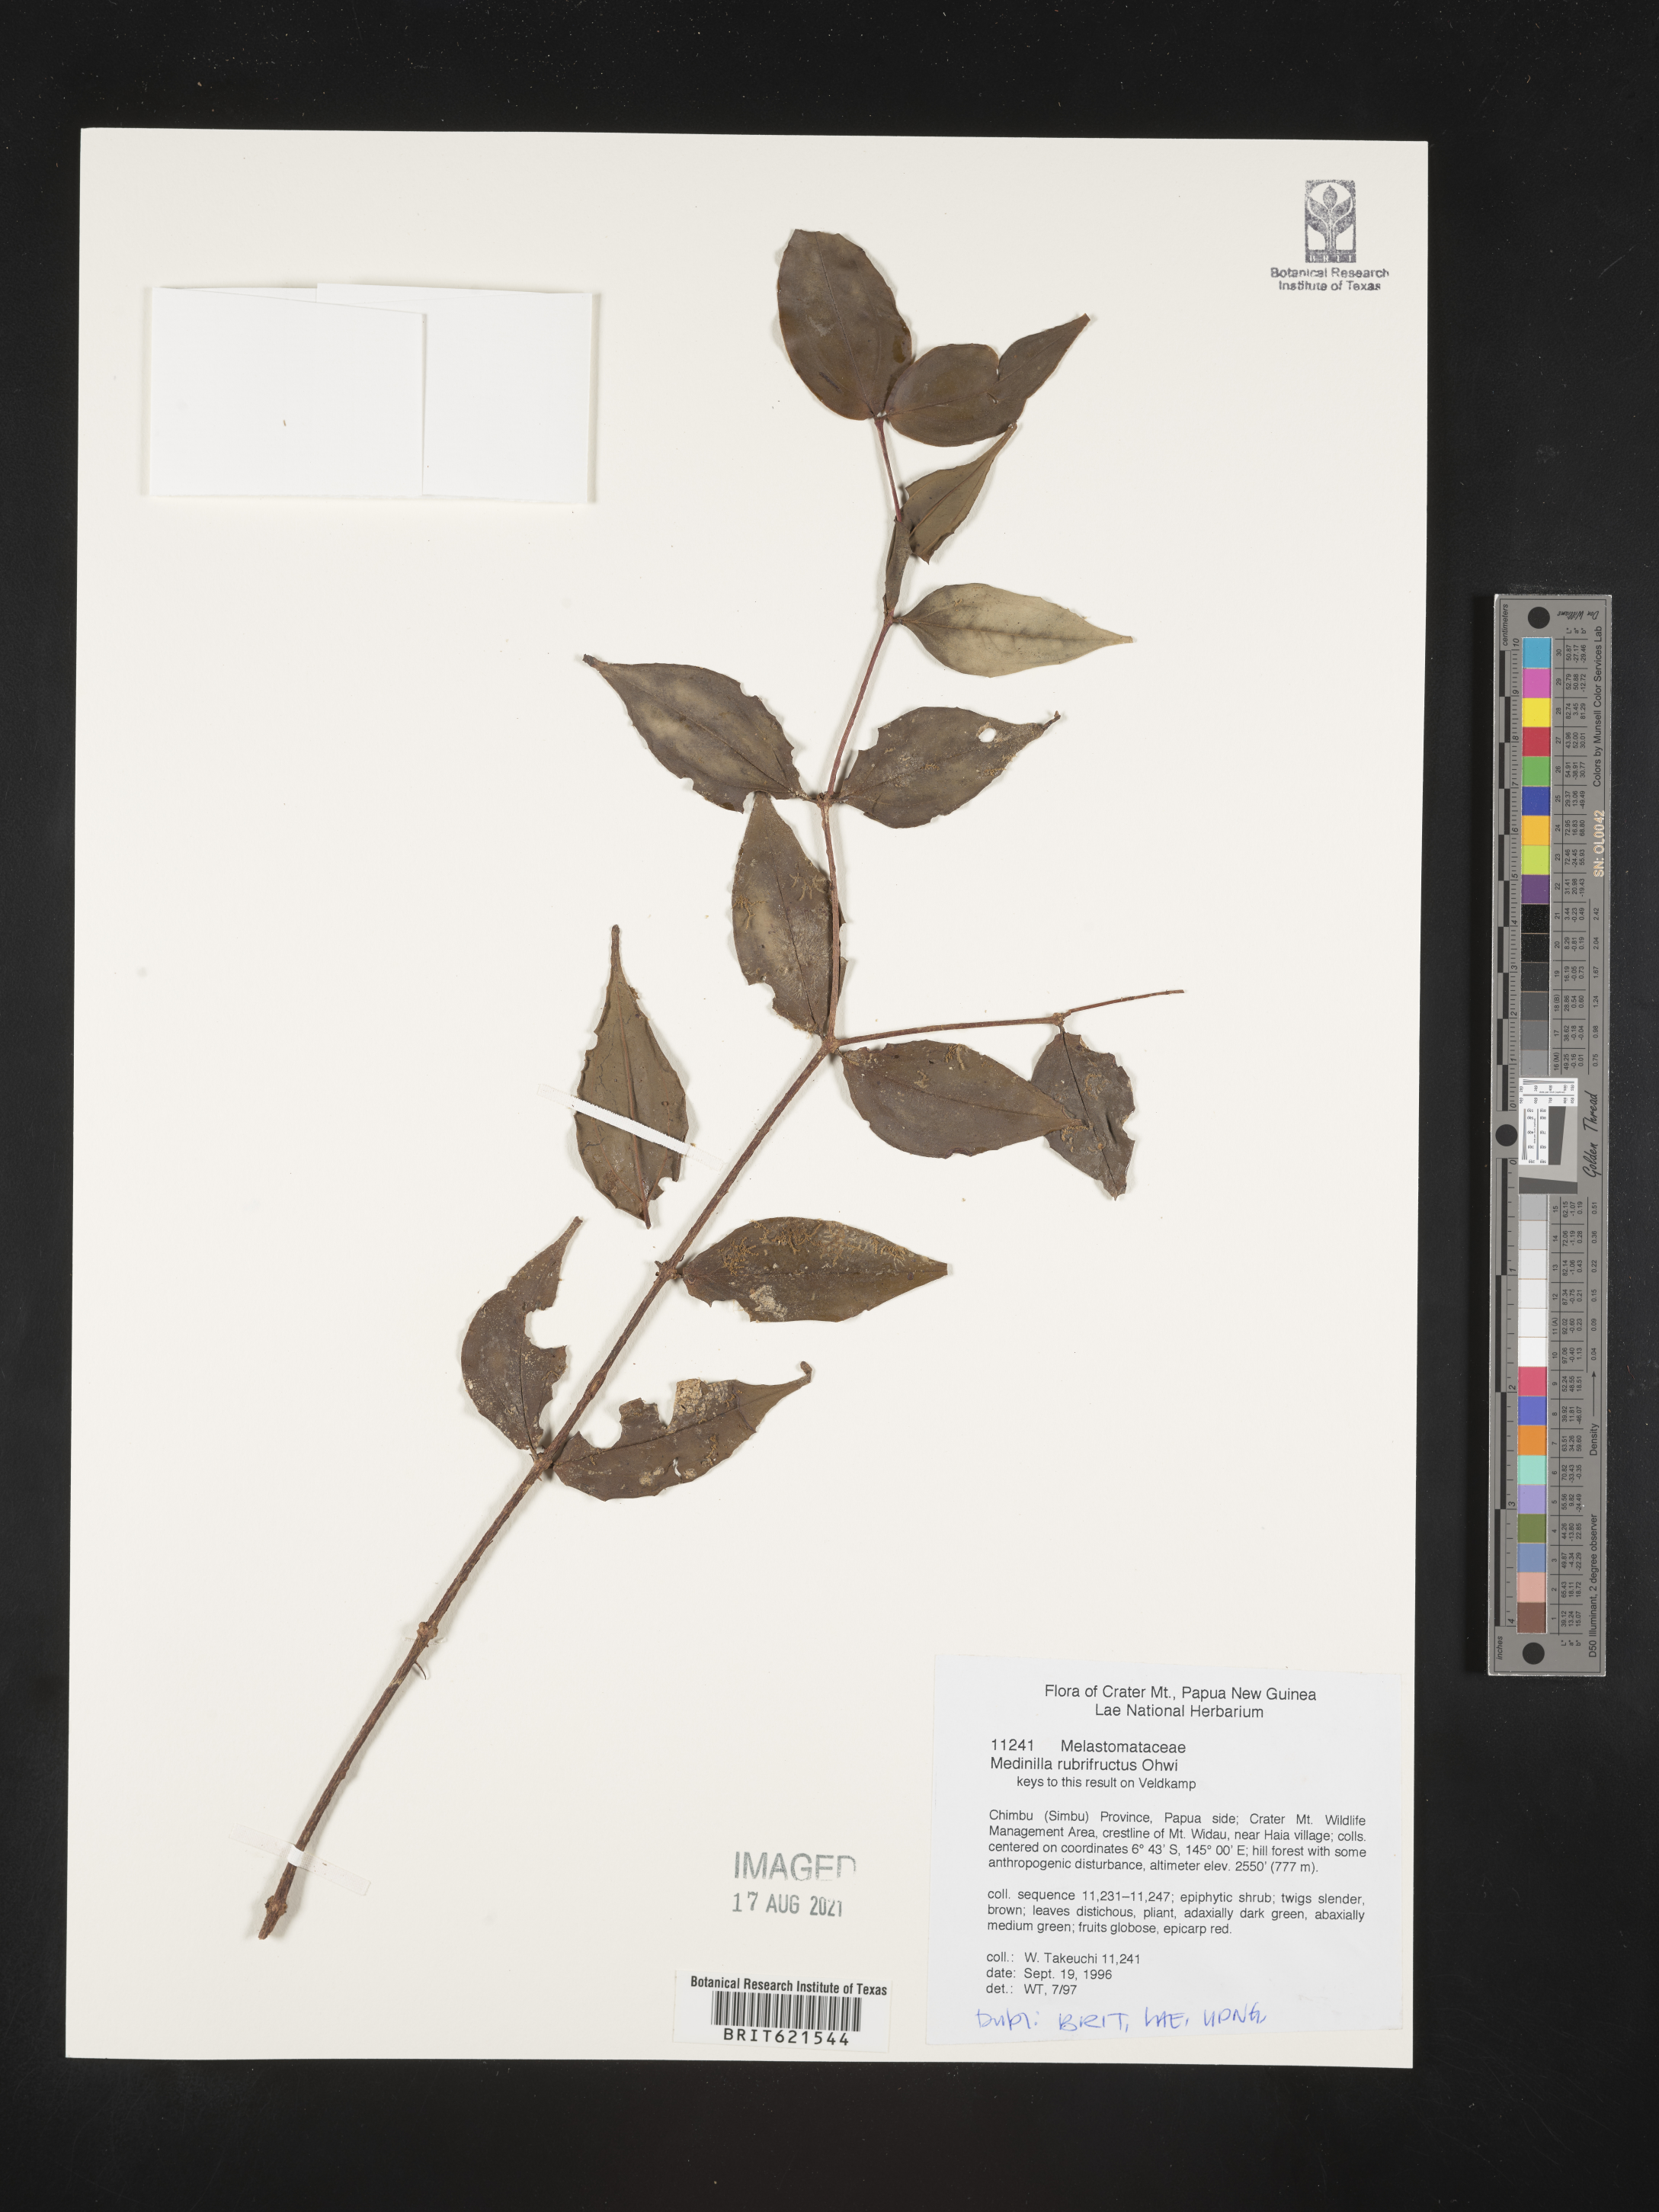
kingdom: Plantae
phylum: Tracheophyta
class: Magnoliopsida
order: Myrtales
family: Melastomataceae
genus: Medinilla
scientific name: Medinilla rubrifructus
